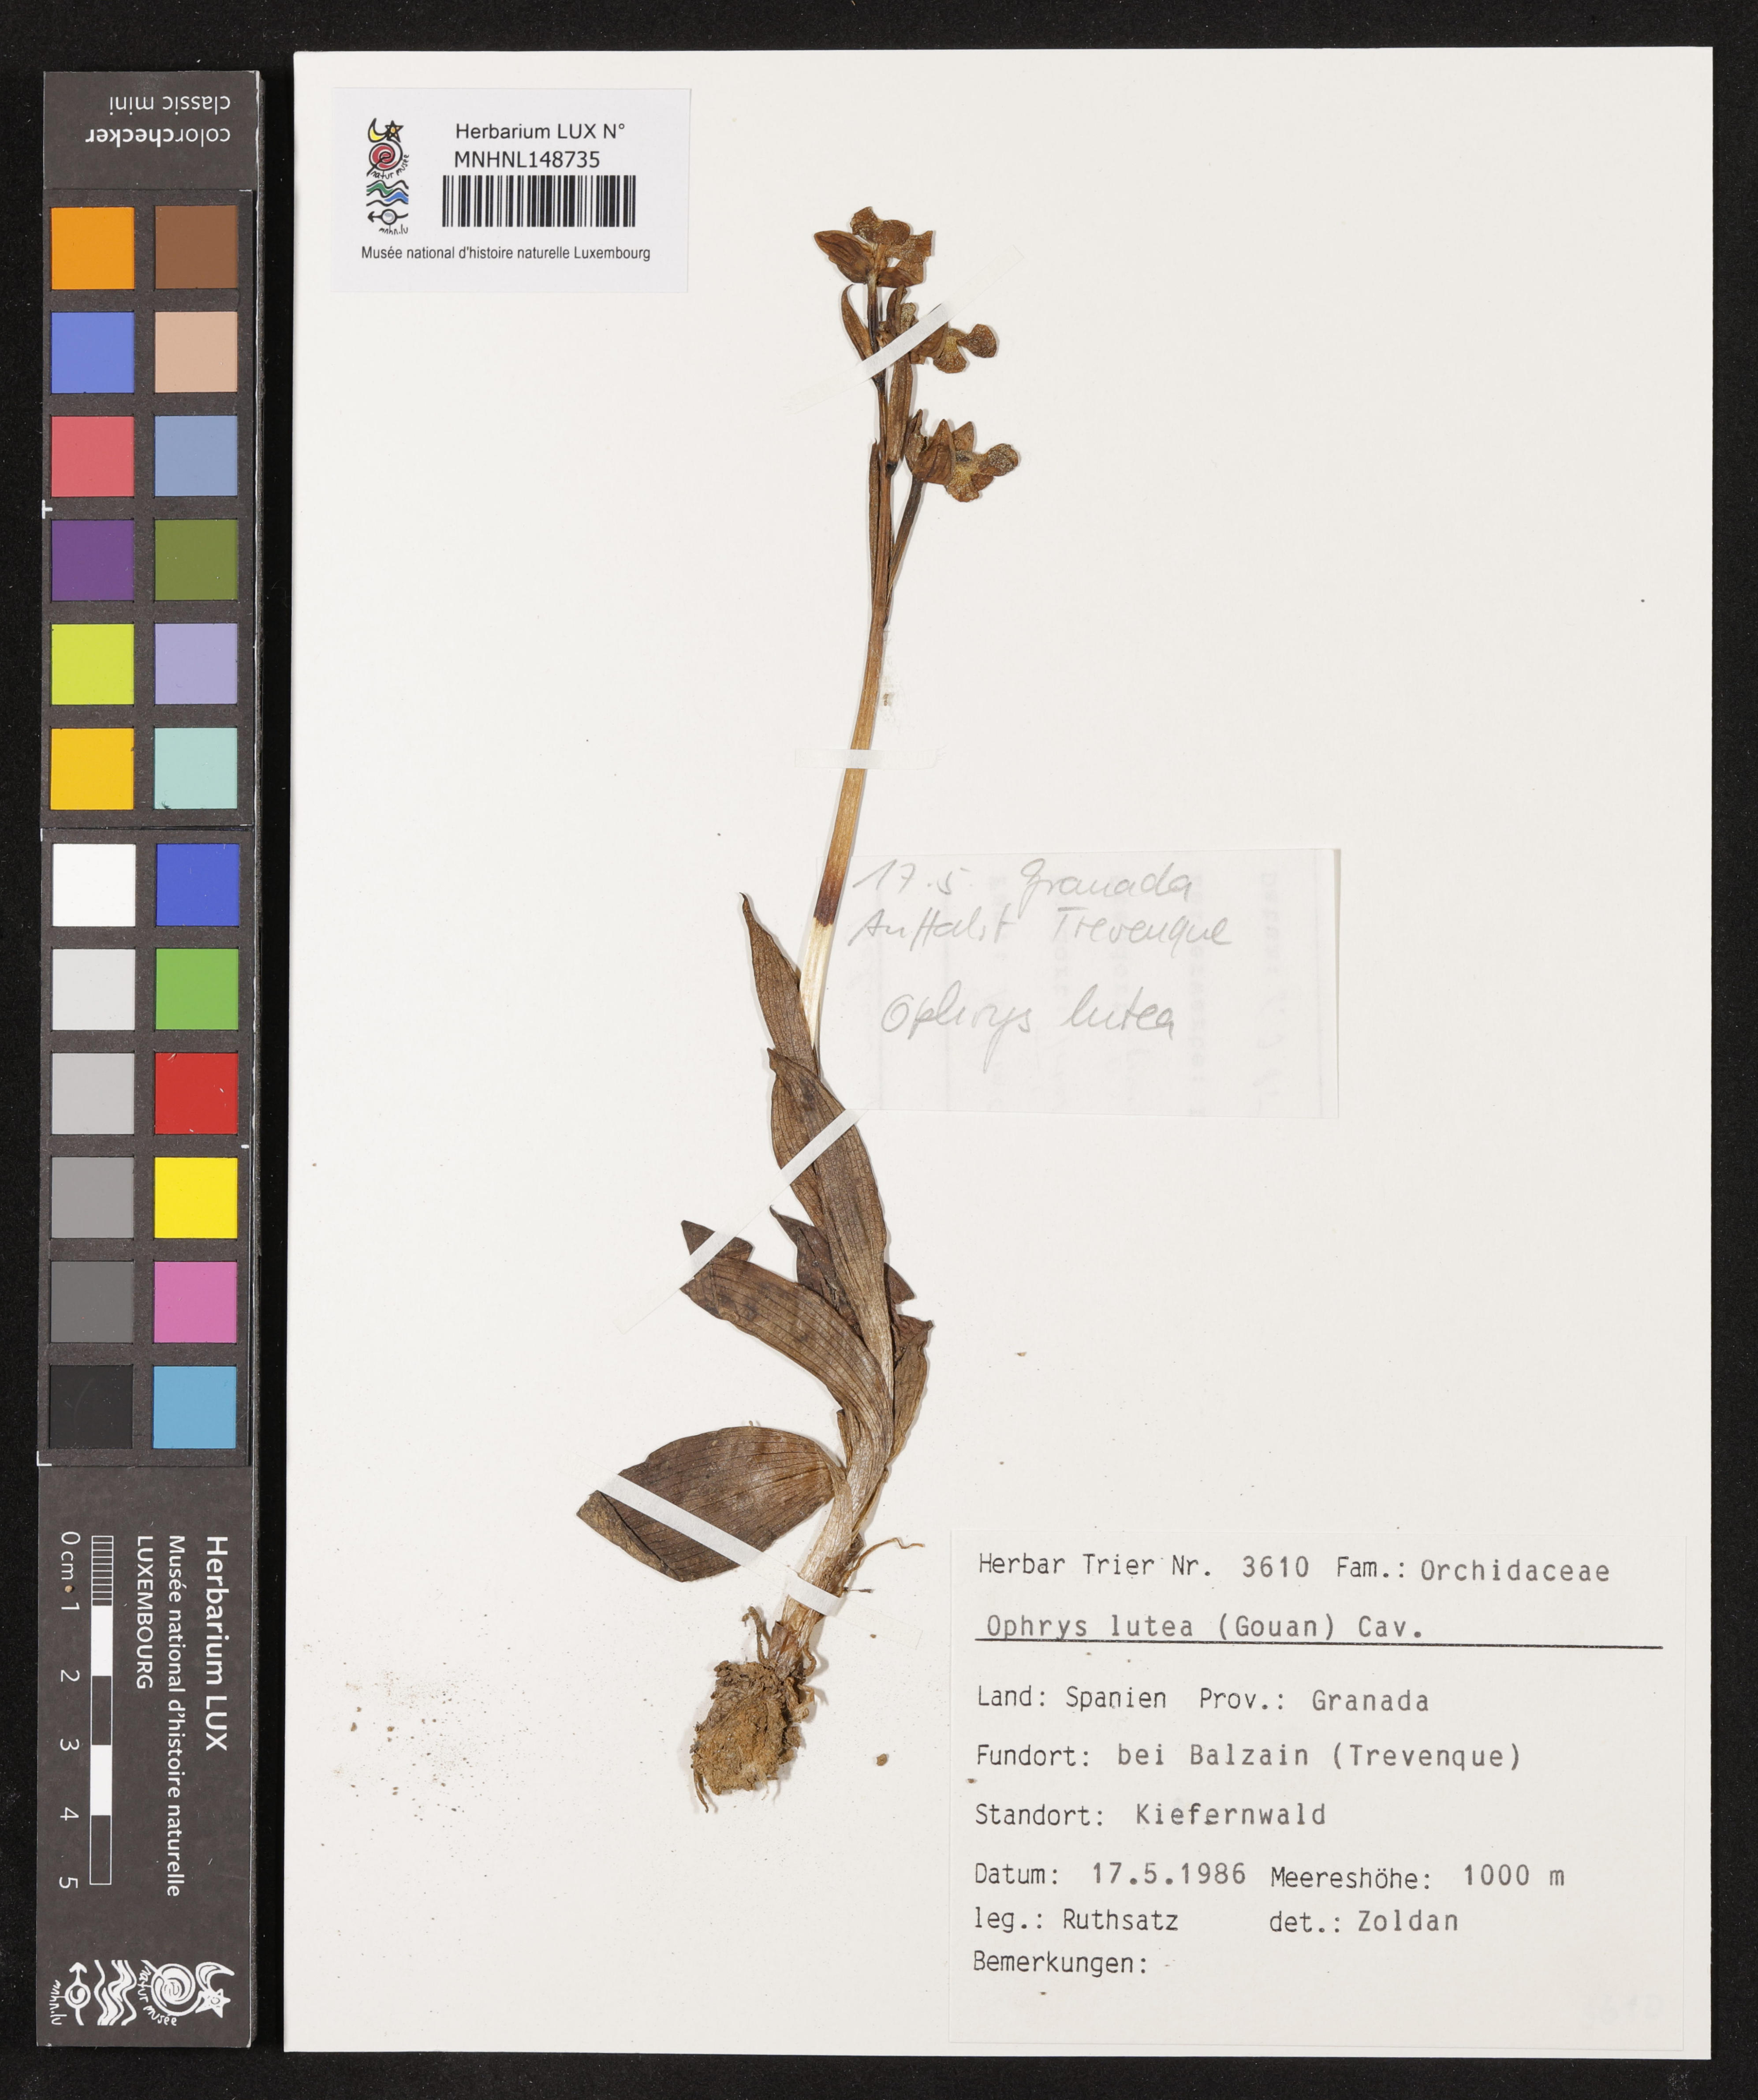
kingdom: Plantae
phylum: Tracheophyta
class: Liliopsida
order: Asparagales
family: Orchidaceae
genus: Ophrys
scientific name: Ophrys lutea
